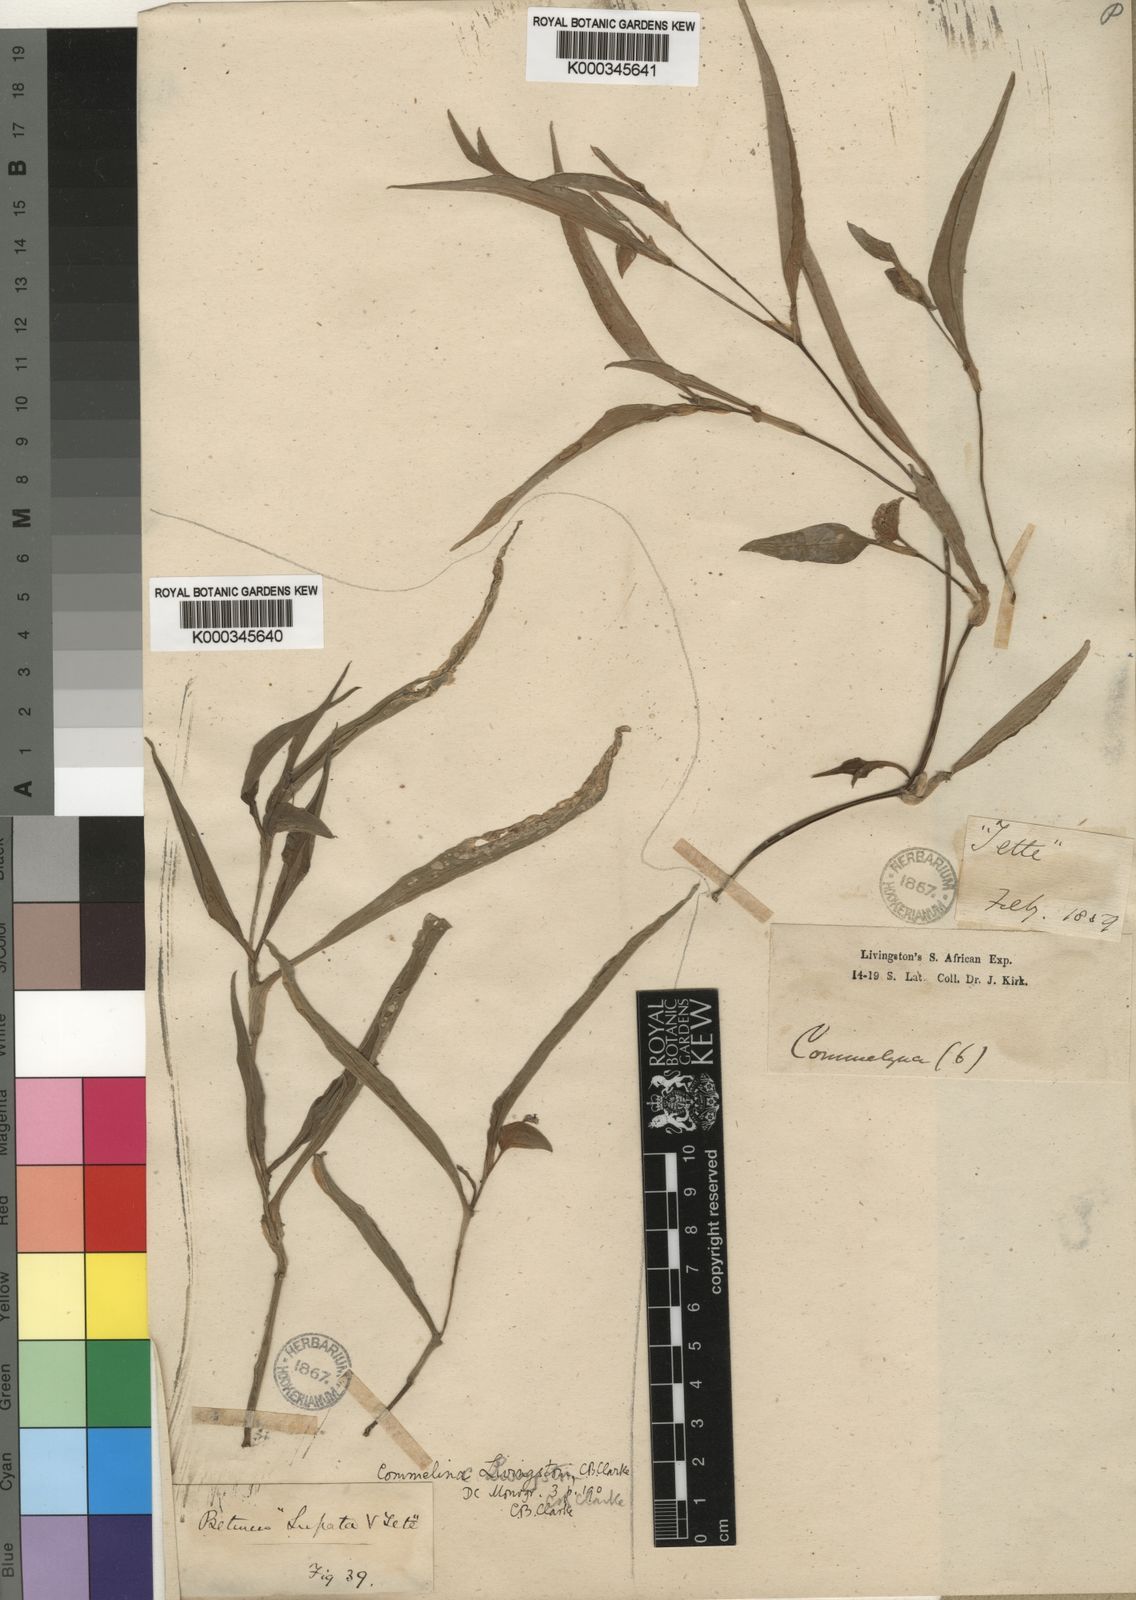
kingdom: Plantae
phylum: Tracheophyta
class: Liliopsida
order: Commelinales
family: Commelinaceae
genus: Commelina
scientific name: Commelina erecta
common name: Blousel blommetjie
